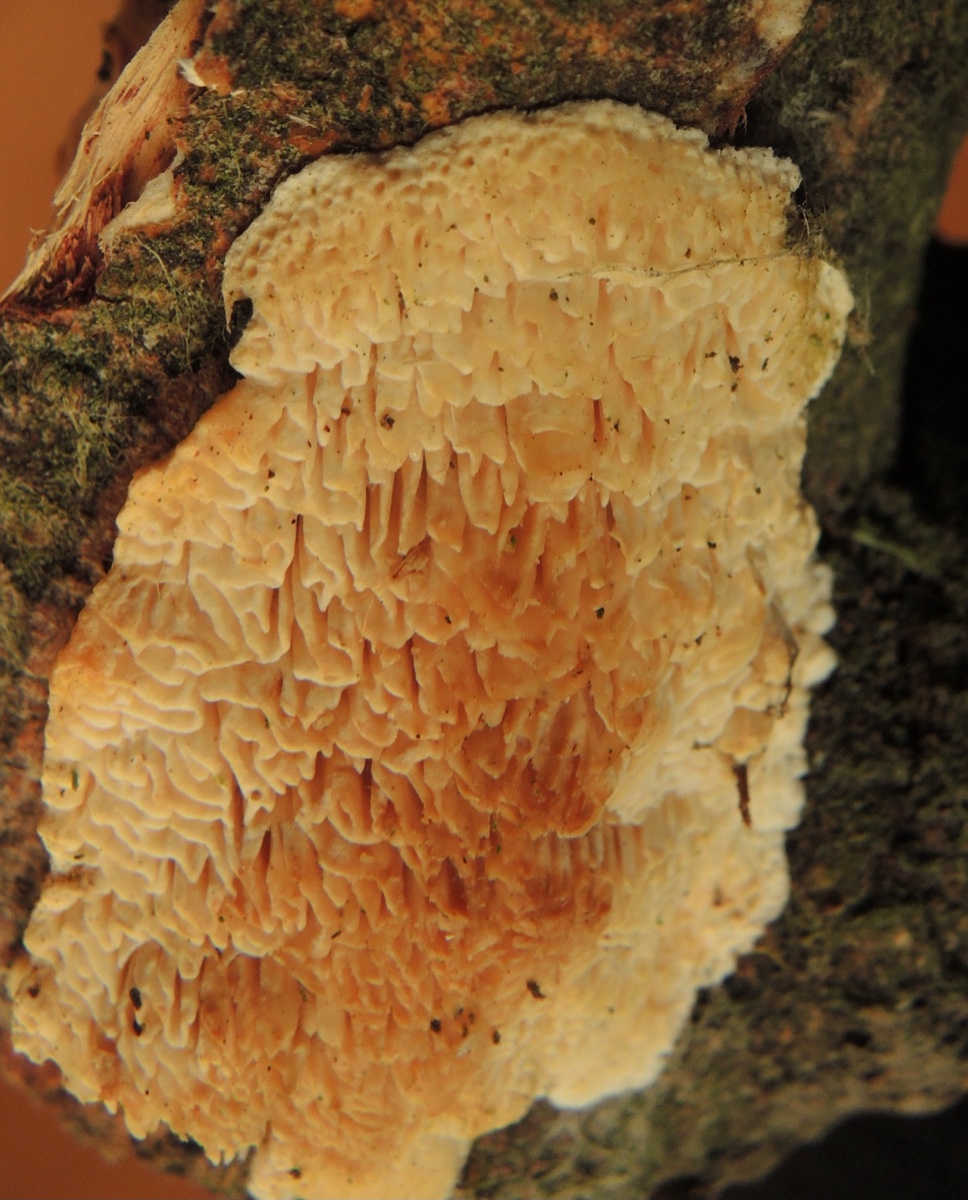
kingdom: Fungi
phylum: Basidiomycota
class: Agaricomycetes
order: Polyporales
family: Fomitopsidaceae
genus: Fomitopsis
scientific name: Fomitopsis
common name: pile-skiveporesvamp
